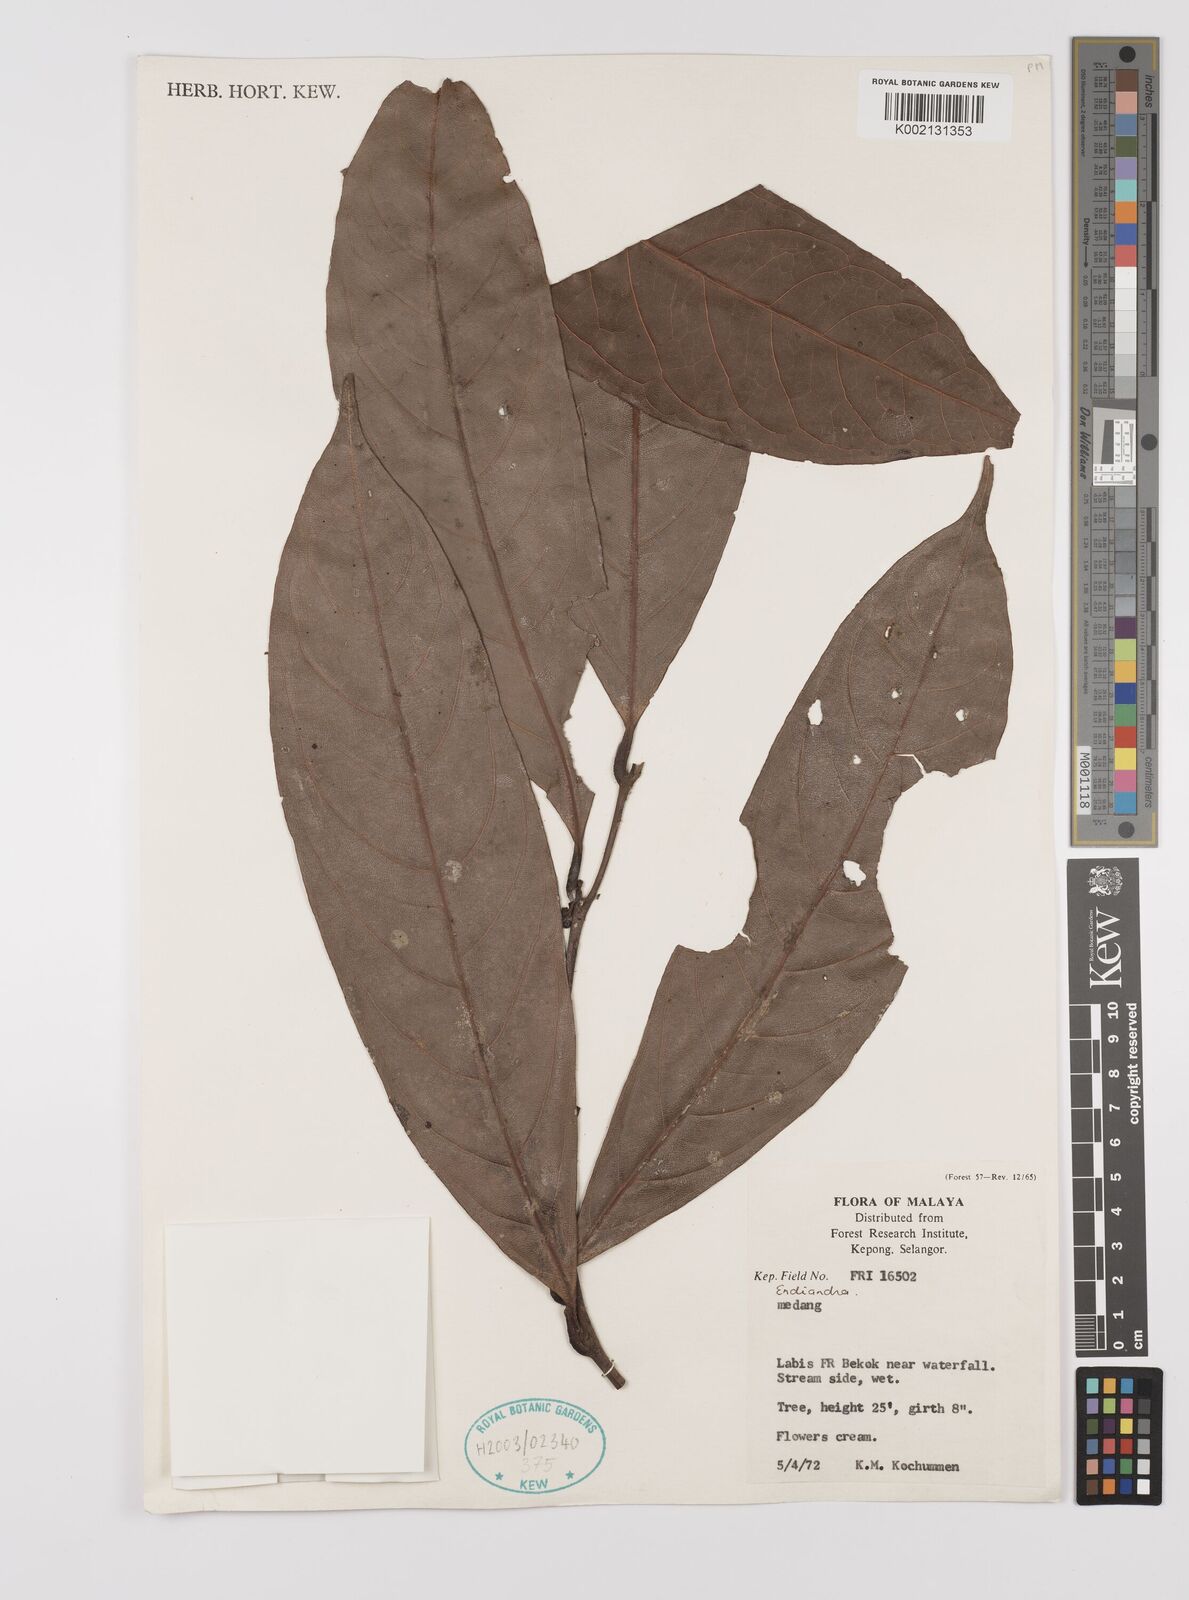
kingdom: Plantae
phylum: Tracheophyta
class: Magnoliopsida
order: Laurales
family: Lauraceae
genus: Endiandra
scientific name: Endiandra
